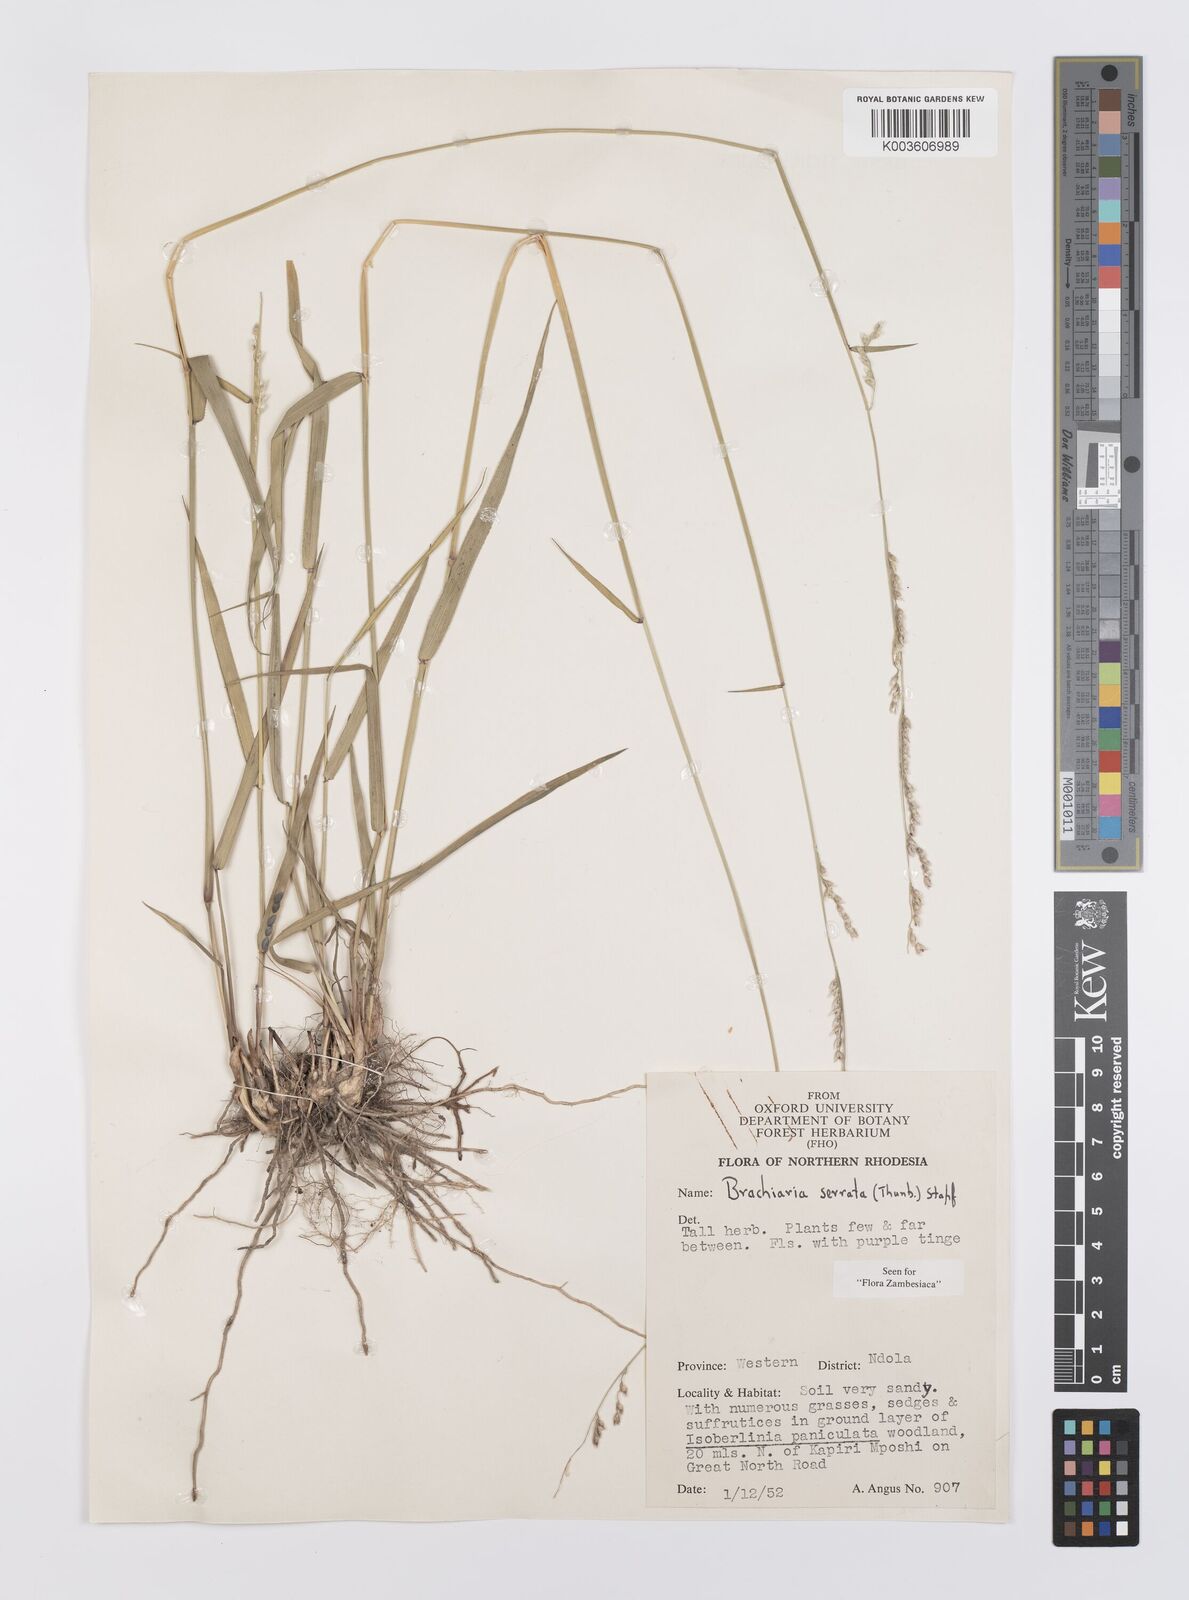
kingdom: Plantae
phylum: Tracheophyta
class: Liliopsida
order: Poales
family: Poaceae
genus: Urochloa
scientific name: Urochloa serrata
